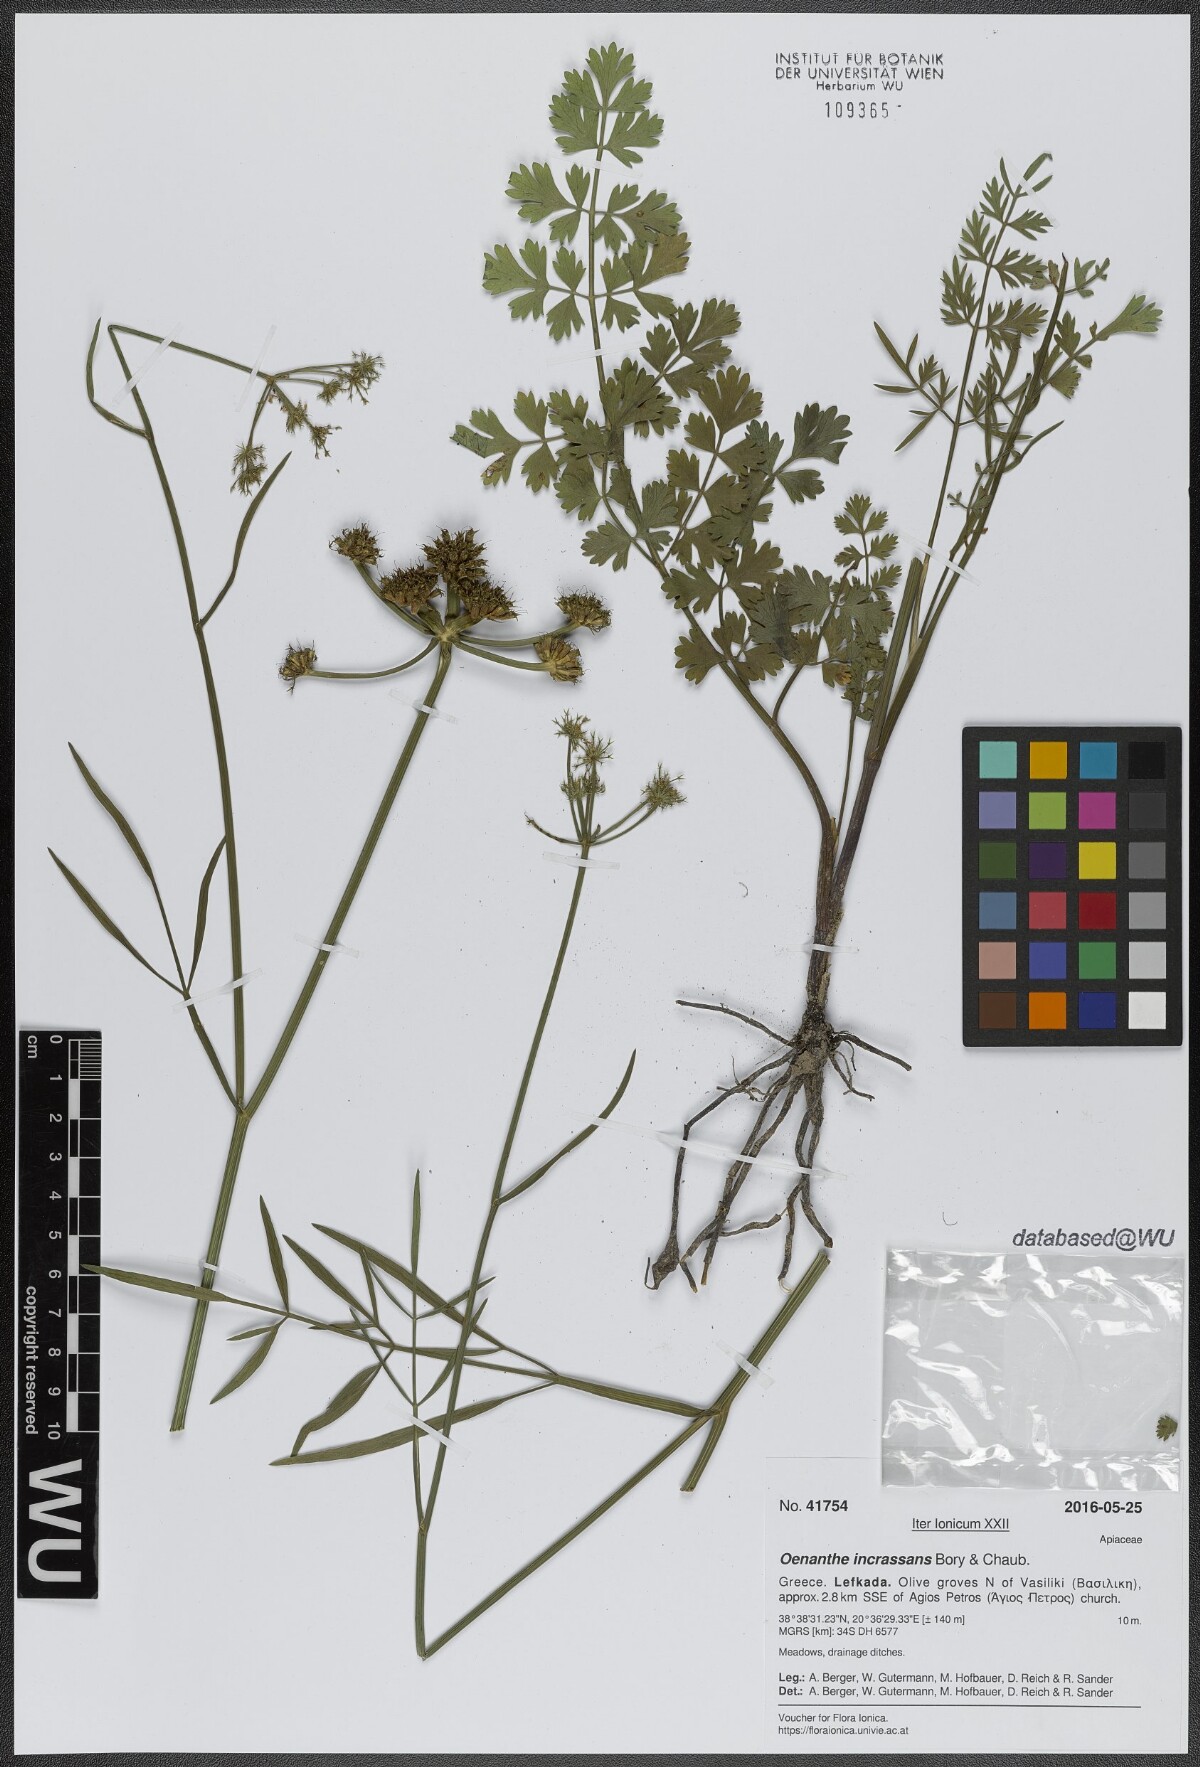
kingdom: Plantae
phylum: Tracheophyta
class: Magnoliopsida
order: Apiales
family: Apiaceae
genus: Oenanthe
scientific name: Oenanthe pimpinelloides
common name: Corky-fruited water-dropwort
